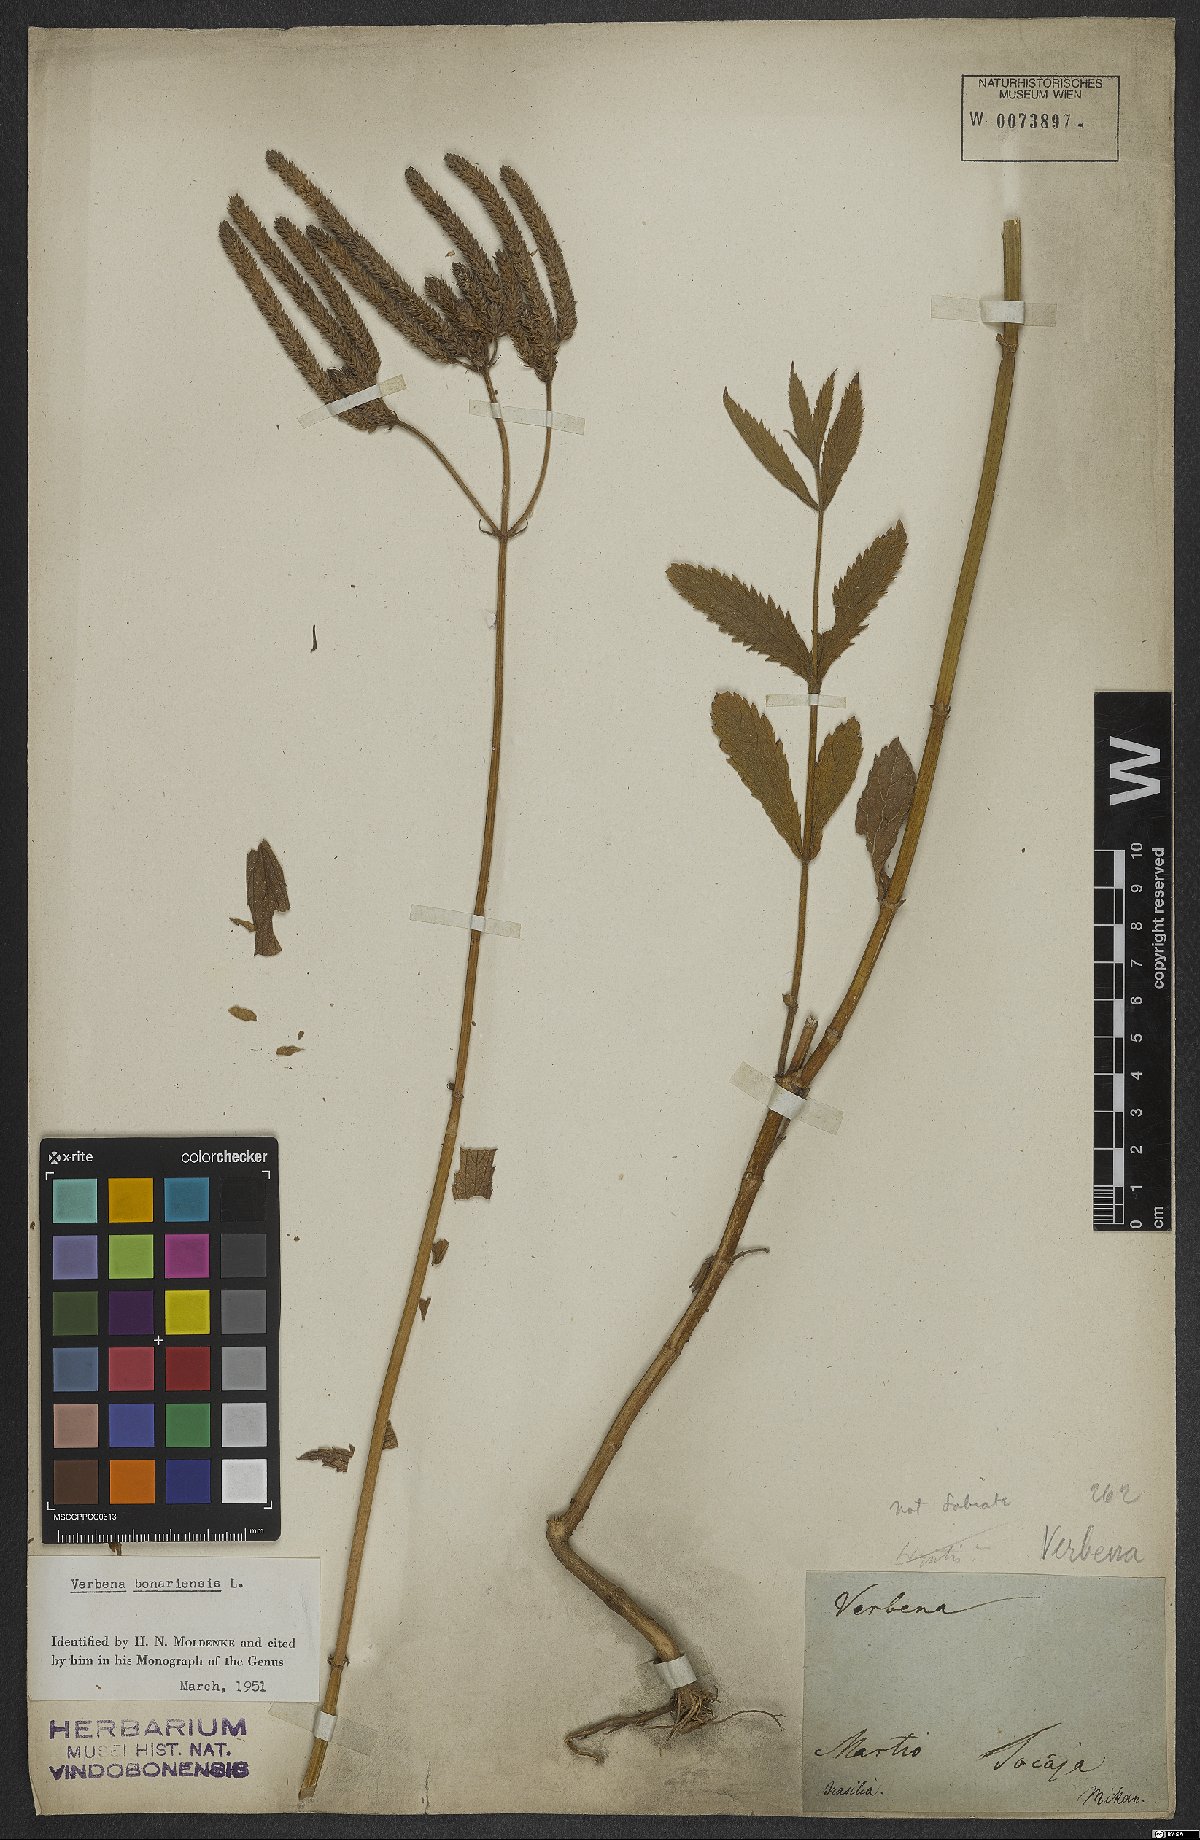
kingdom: Plantae
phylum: Tracheophyta
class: Magnoliopsida
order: Lamiales
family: Verbenaceae
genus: Verbena
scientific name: Verbena bonariensis
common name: Purpletop vervain
